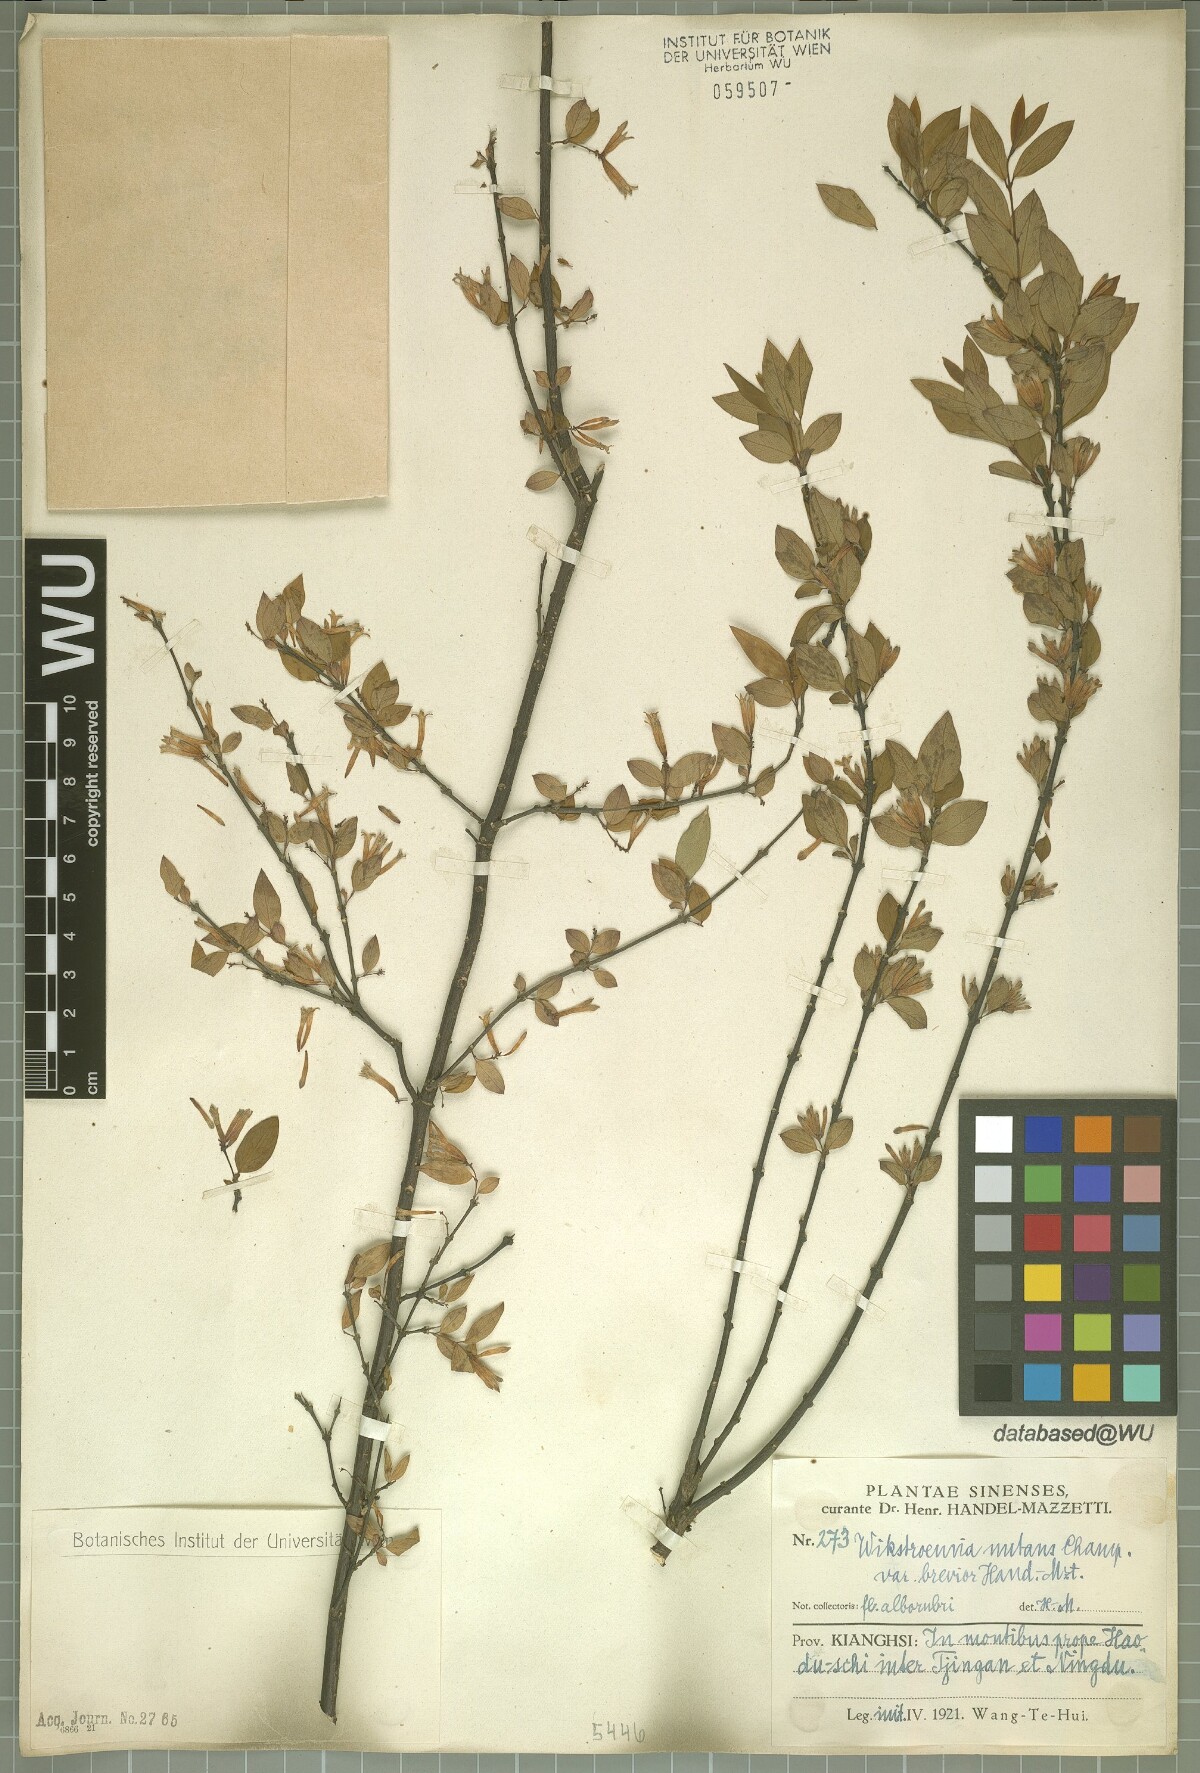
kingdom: Plantae
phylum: Tracheophyta
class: Magnoliopsida
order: Malvales
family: Thymelaeaceae
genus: Wikstroemia
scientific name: Wikstroemia nutans
